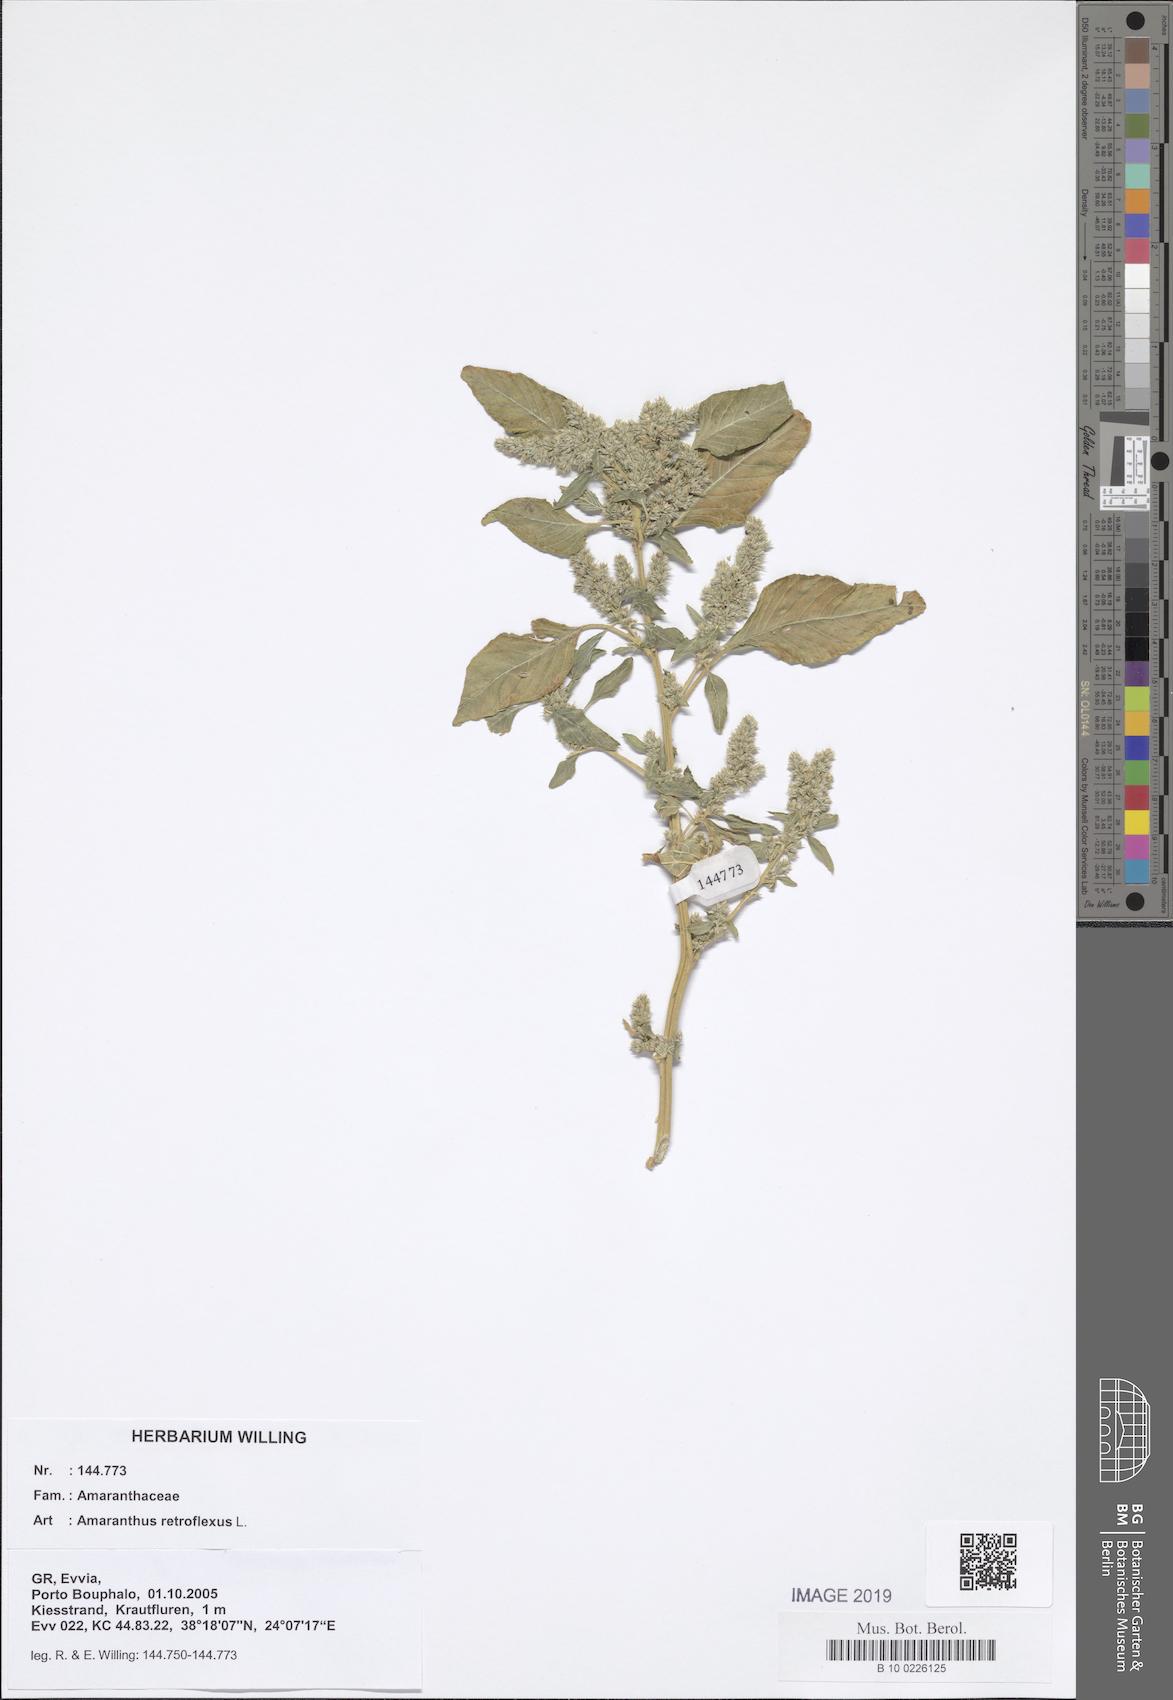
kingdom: Plantae
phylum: Tracheophyta
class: Magnoliopsida
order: Caryophyllales
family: Amaranthaceae
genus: Amaranthus
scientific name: Amaranthus retroflexus
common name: Redroot amaranth
